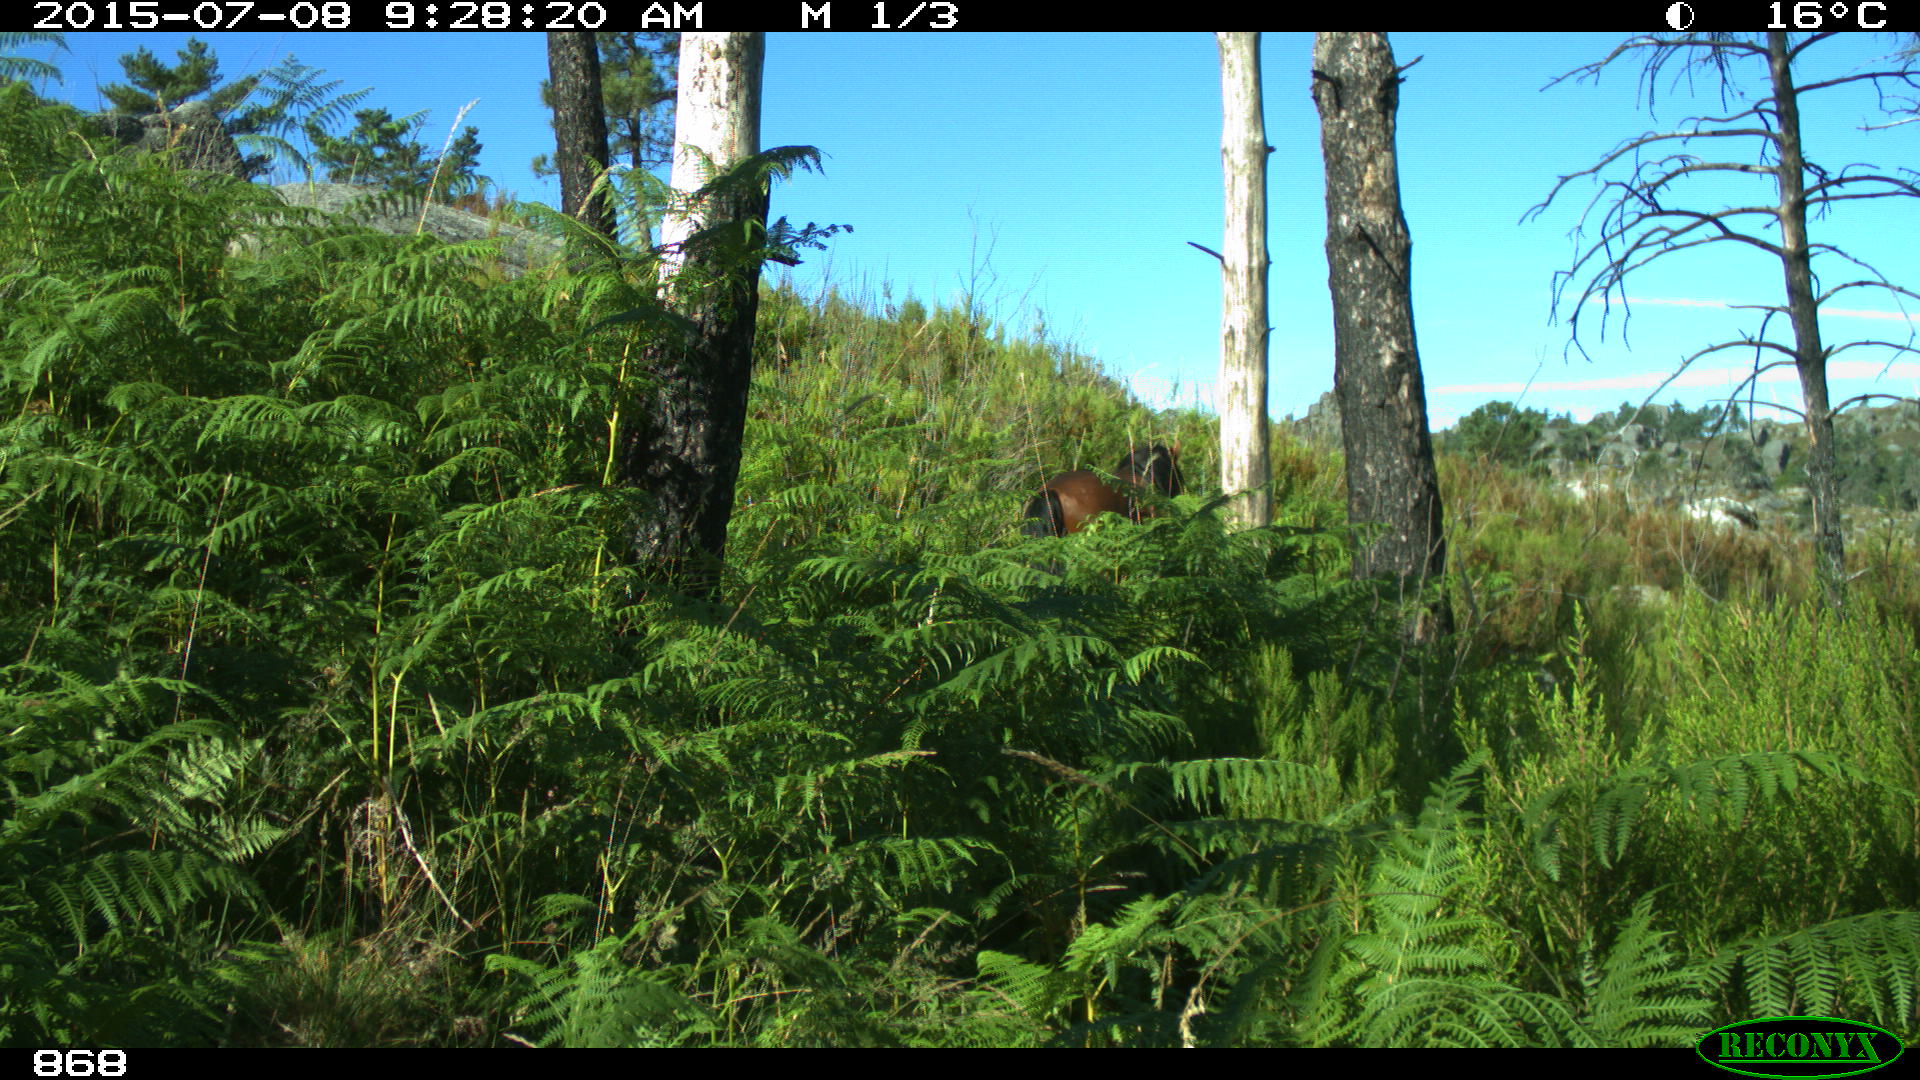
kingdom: Animalia
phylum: Chordata
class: Mammalia
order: Perissodactyla
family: Equidae
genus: Equus
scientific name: Equus caballus
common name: Horse
